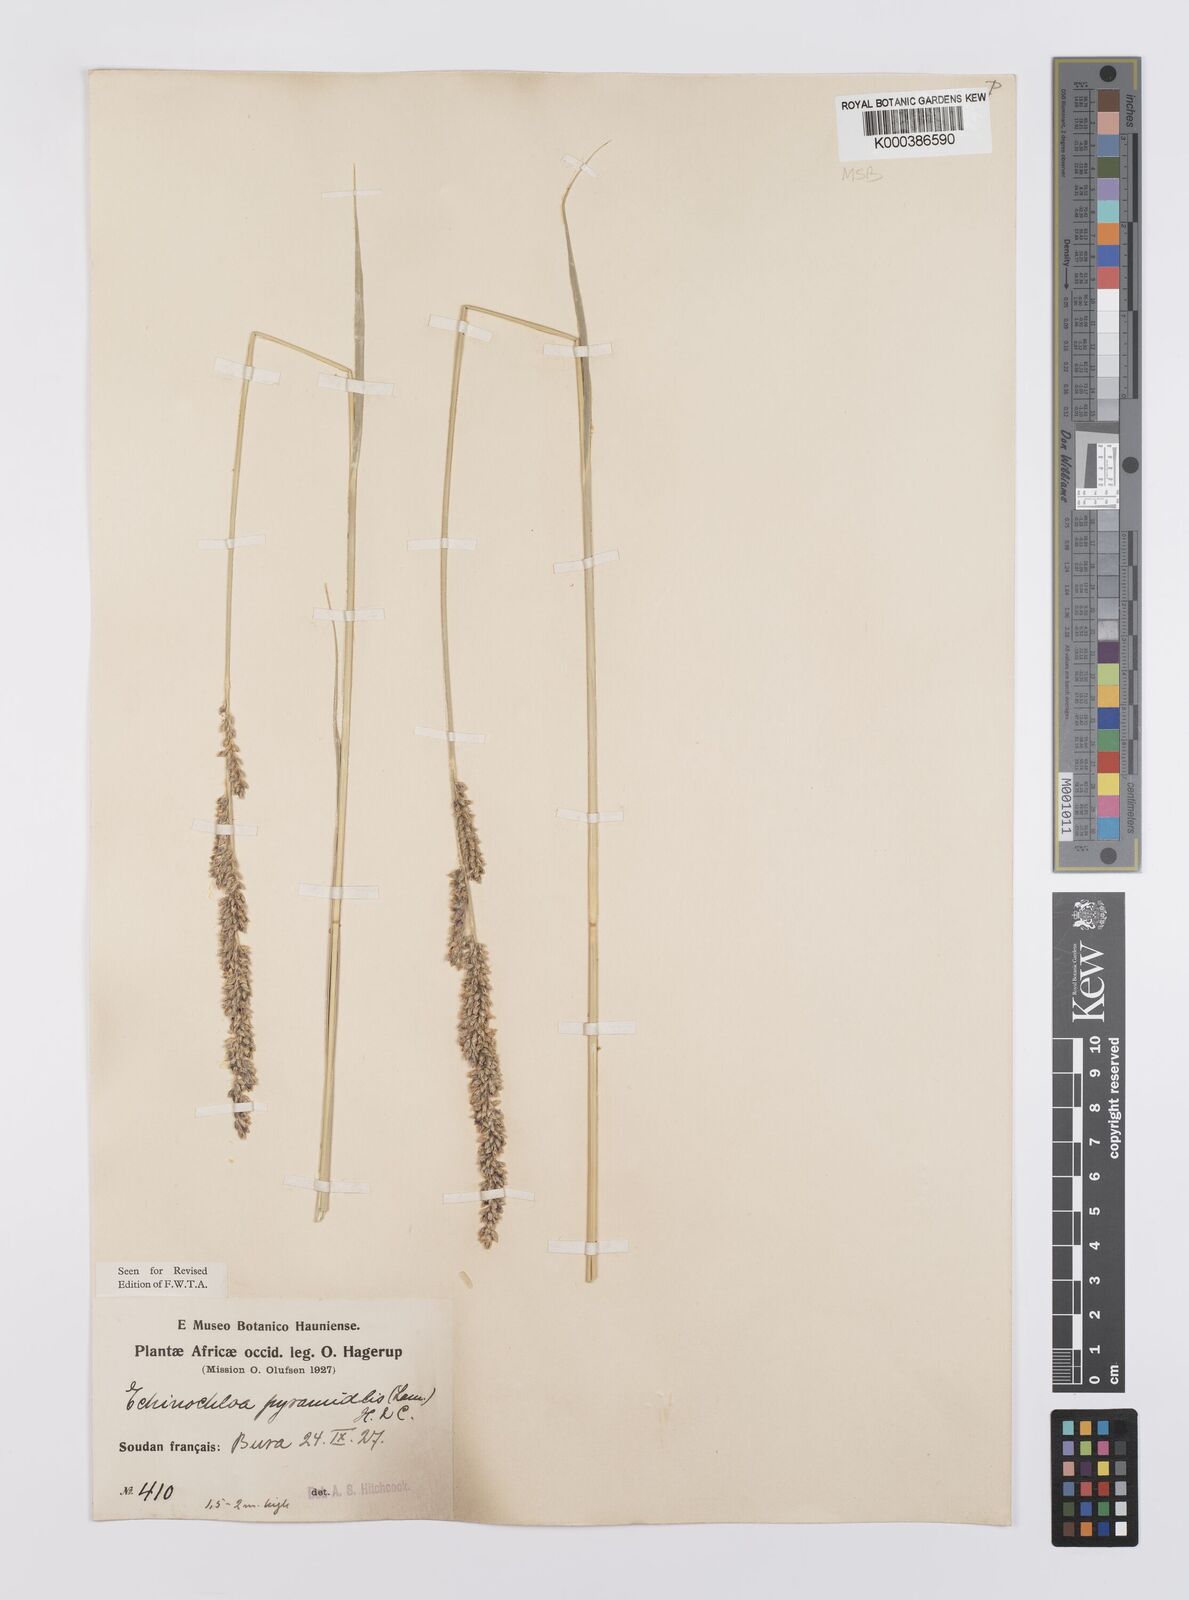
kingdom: Plantae
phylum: Tracheophyta
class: Liliopsida
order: Poales
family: Poaceae
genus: Echinochloa
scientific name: Echinochloa pyramidalis
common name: Antelope grass
